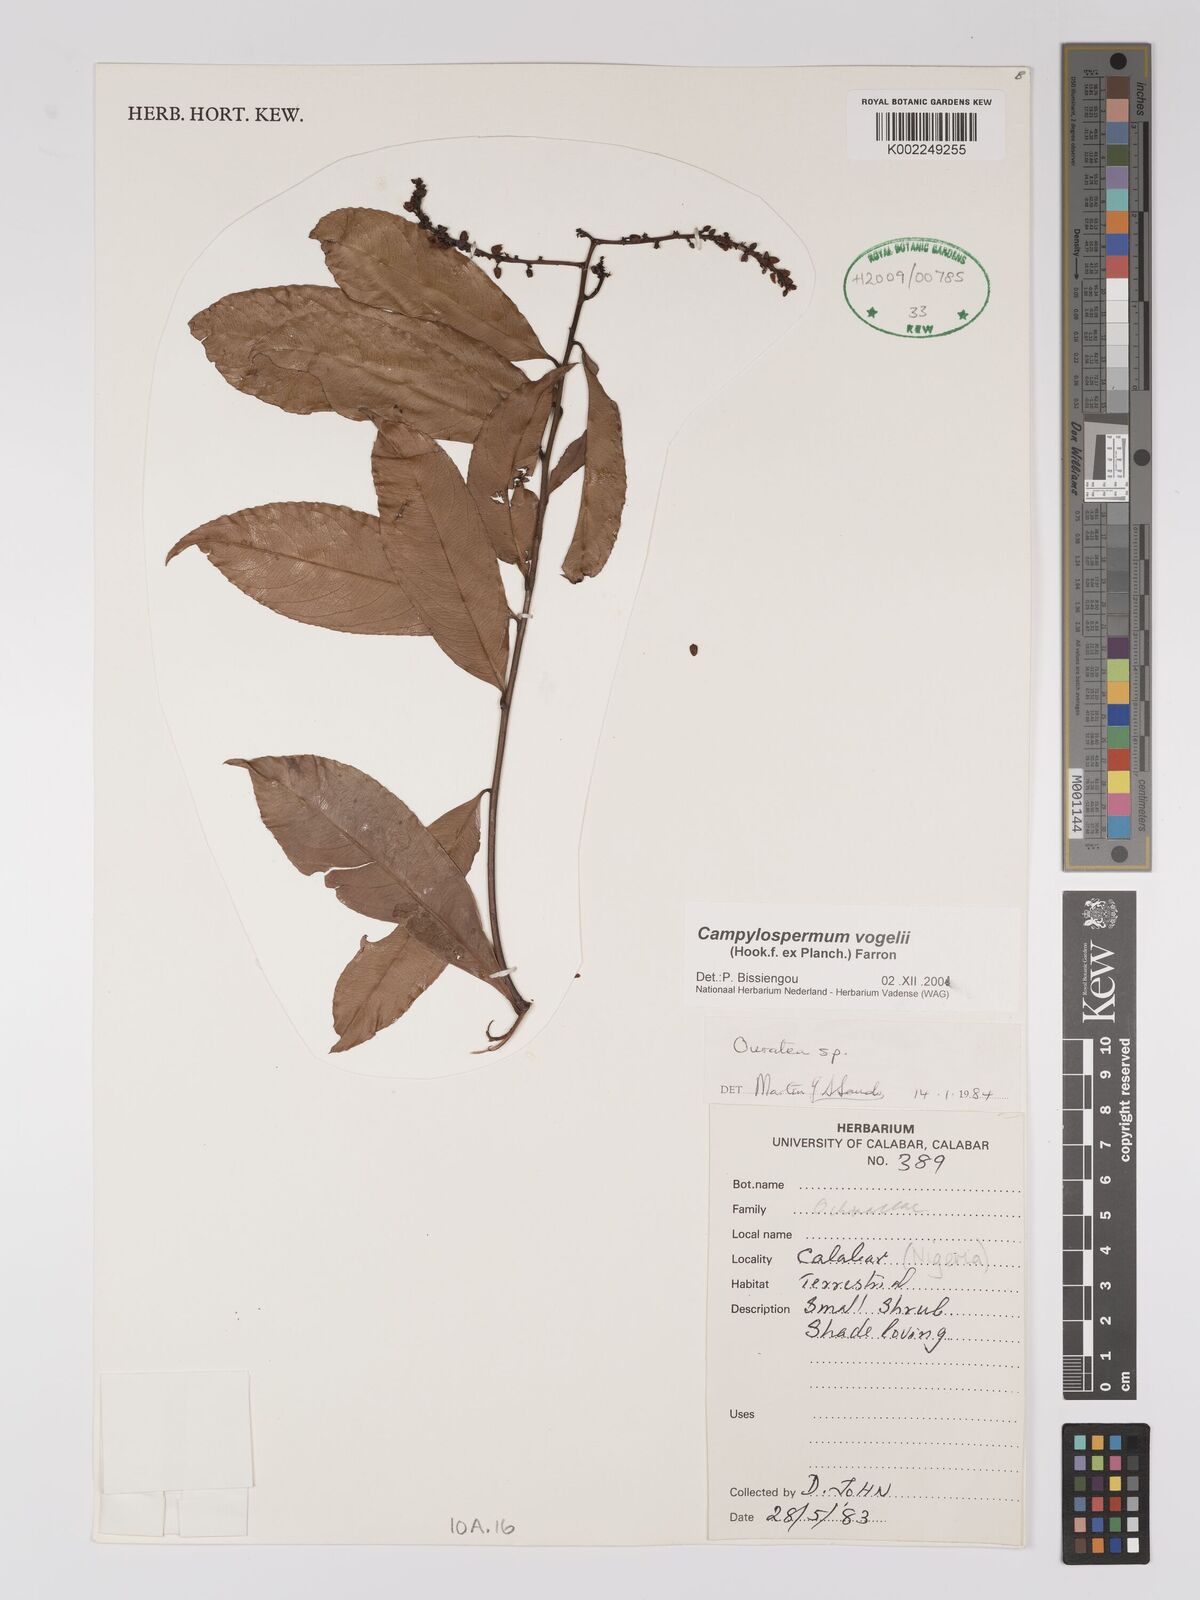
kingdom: Plantae
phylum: Tracheophyta
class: Magnoliopsida
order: Malpighiales
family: Ochnaceae
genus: Campylospermum
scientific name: Campylospermum vogelii
